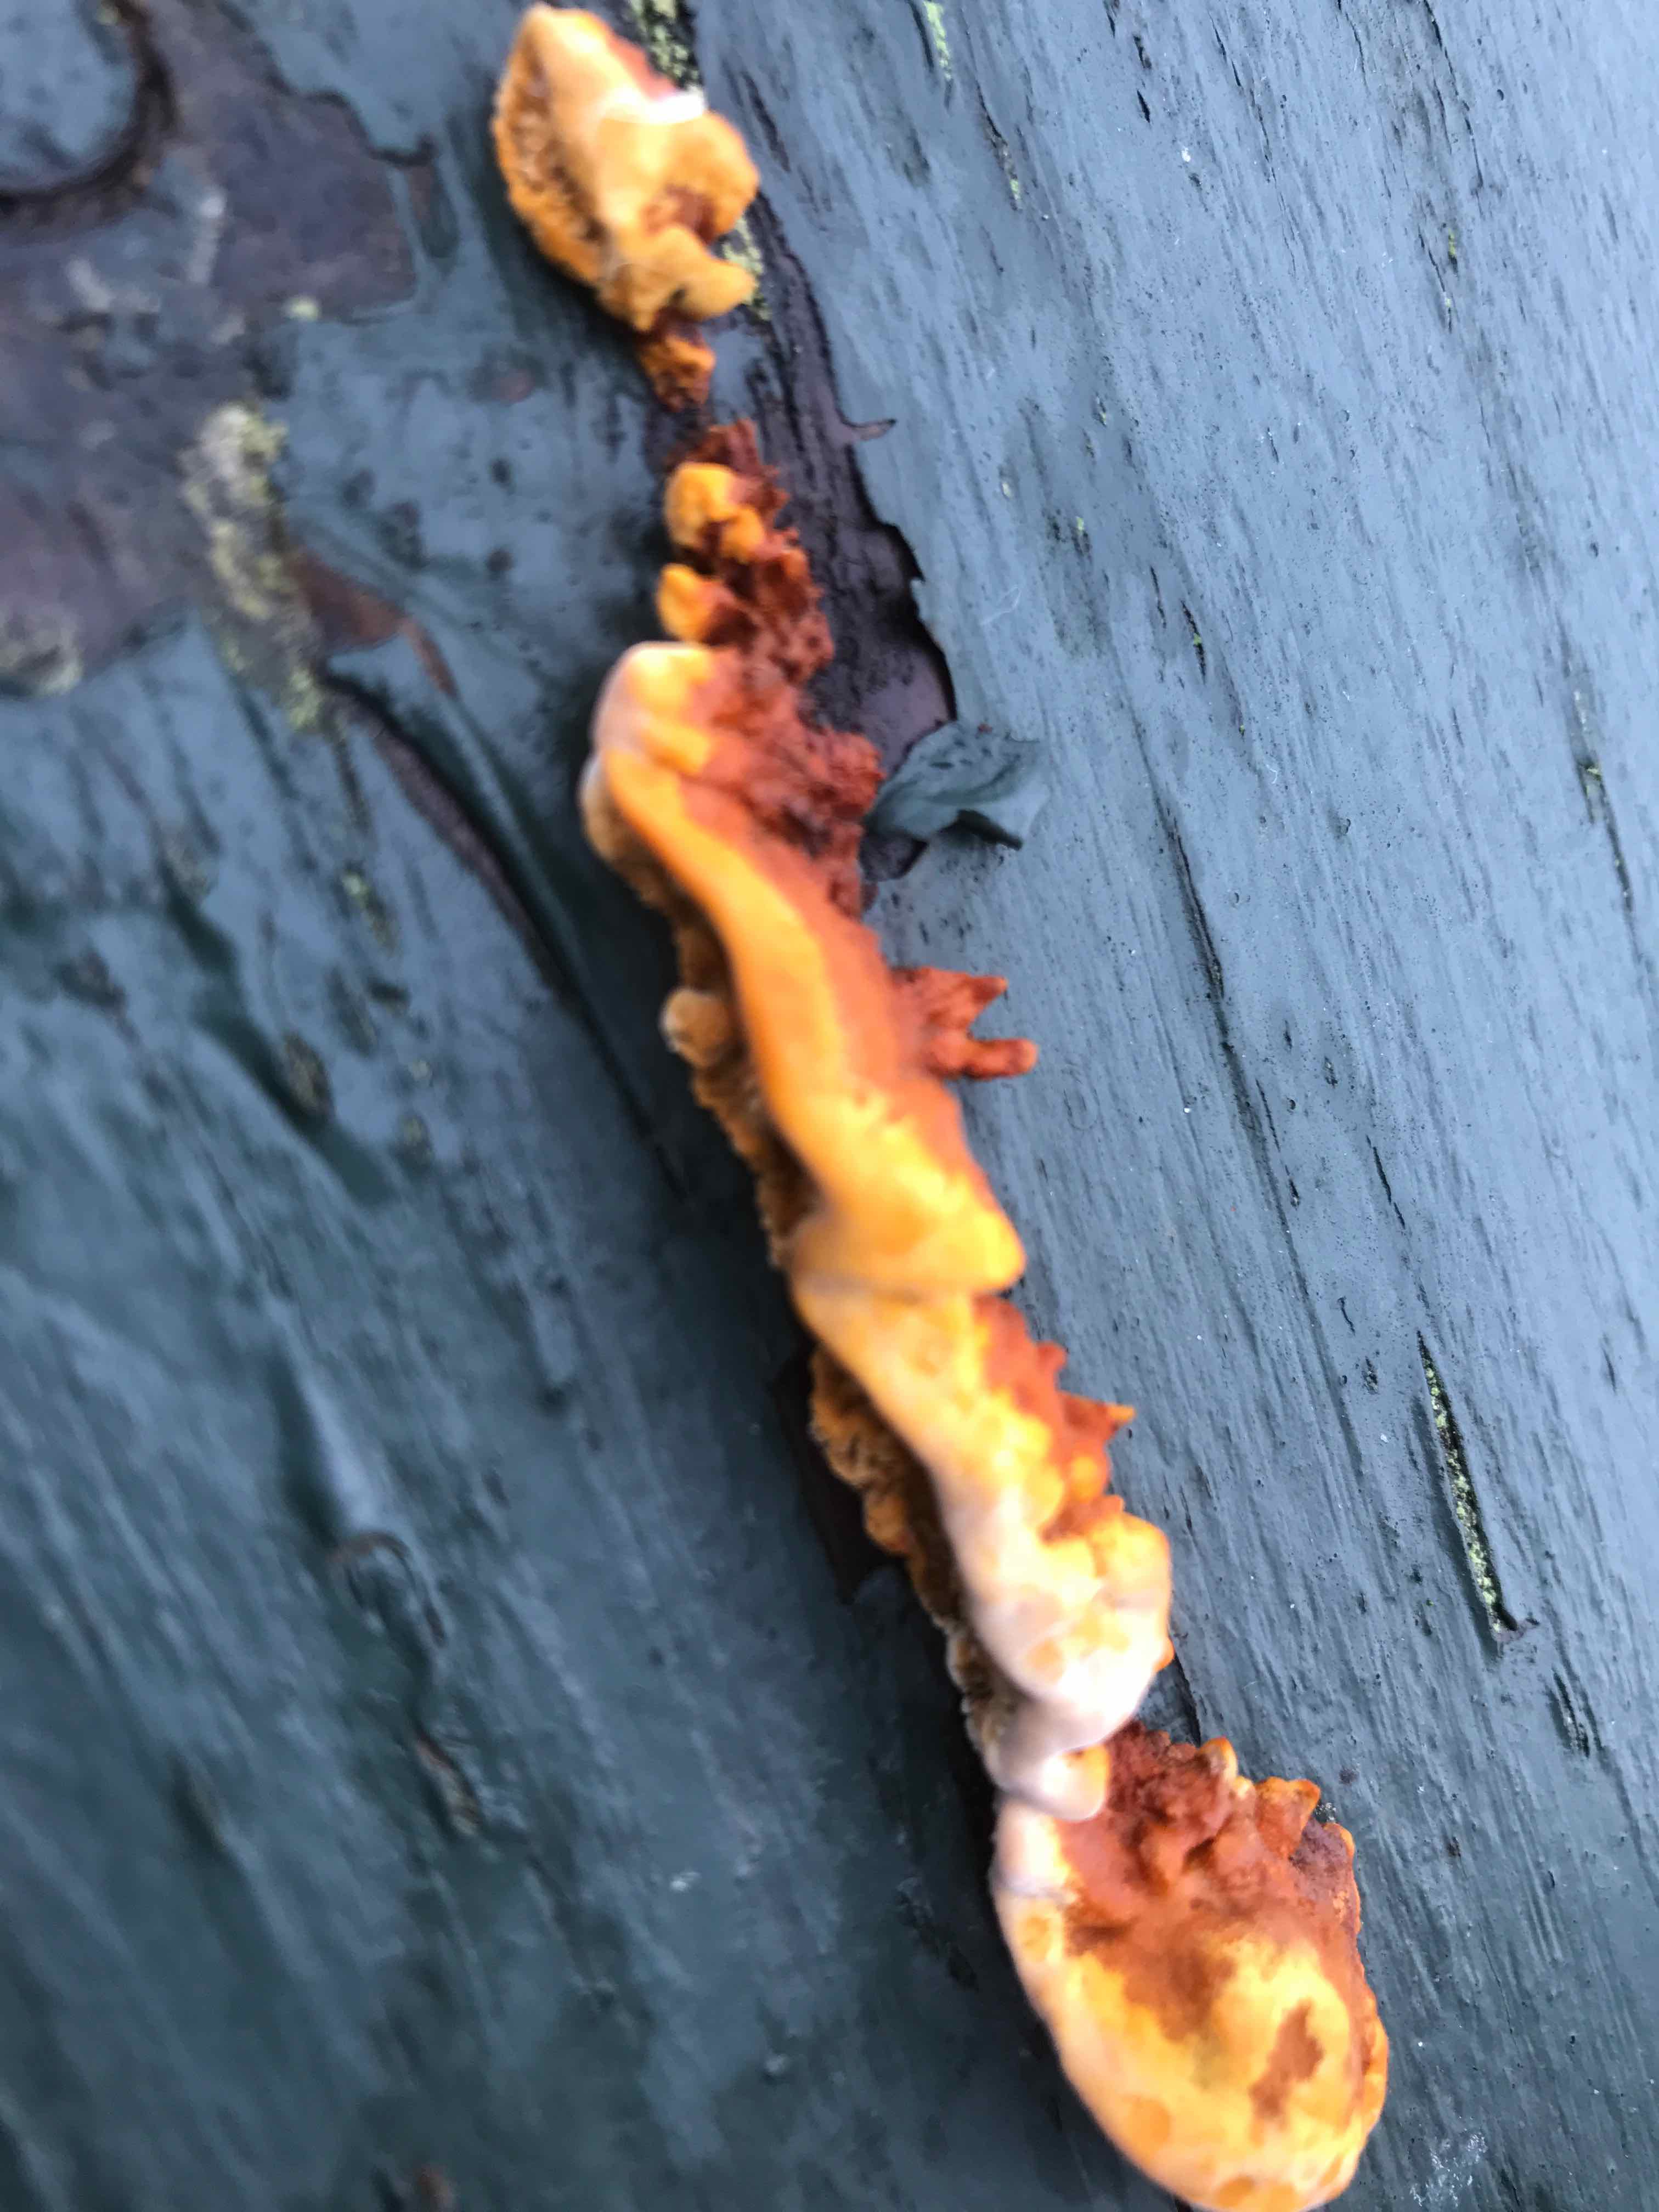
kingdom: Fungi
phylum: Basidiomycota
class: Agaricomycetes
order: Hymenochaetales
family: Hymenochaetaceae
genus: Fuscoporia
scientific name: Fuscoporia ferrea
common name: skorpe-ildporesvamp
